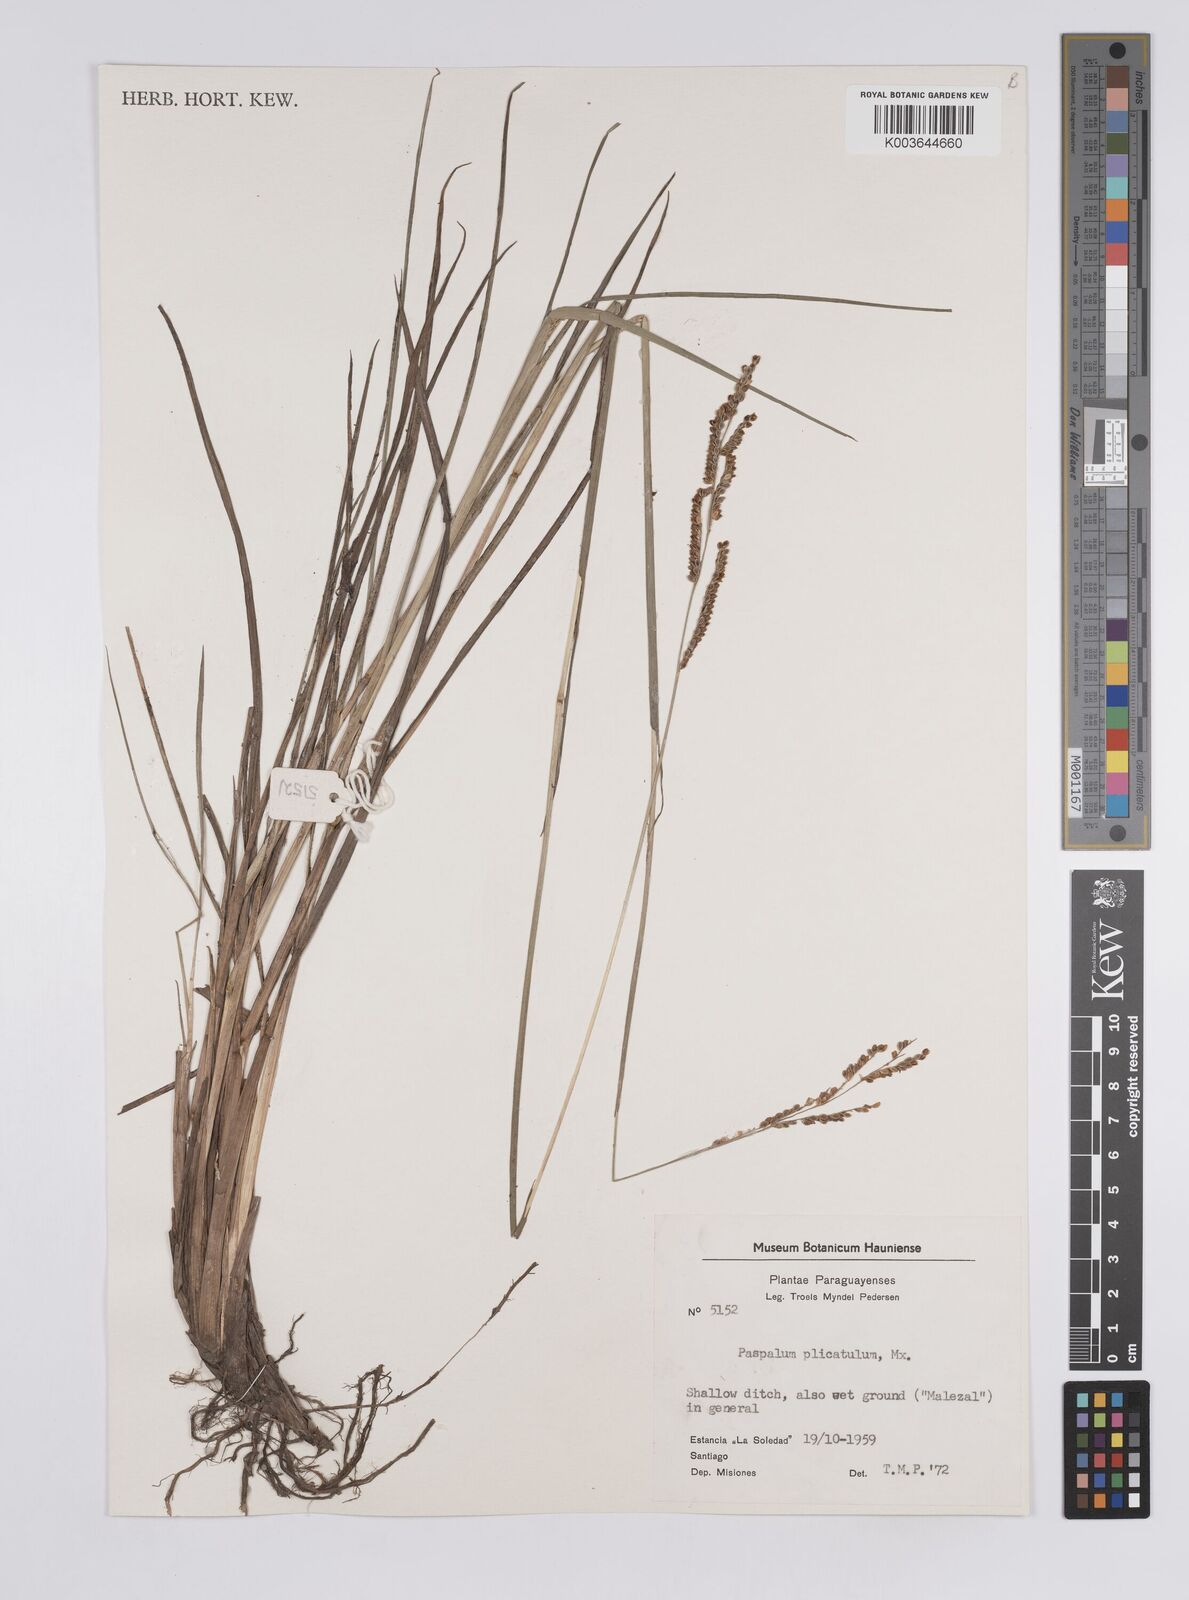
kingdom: Plantae
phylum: Tracheophyta
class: Liliopsida
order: Poales
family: Poaceae
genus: Paspalum
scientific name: Paspalum plicatulum
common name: Top paspalum
